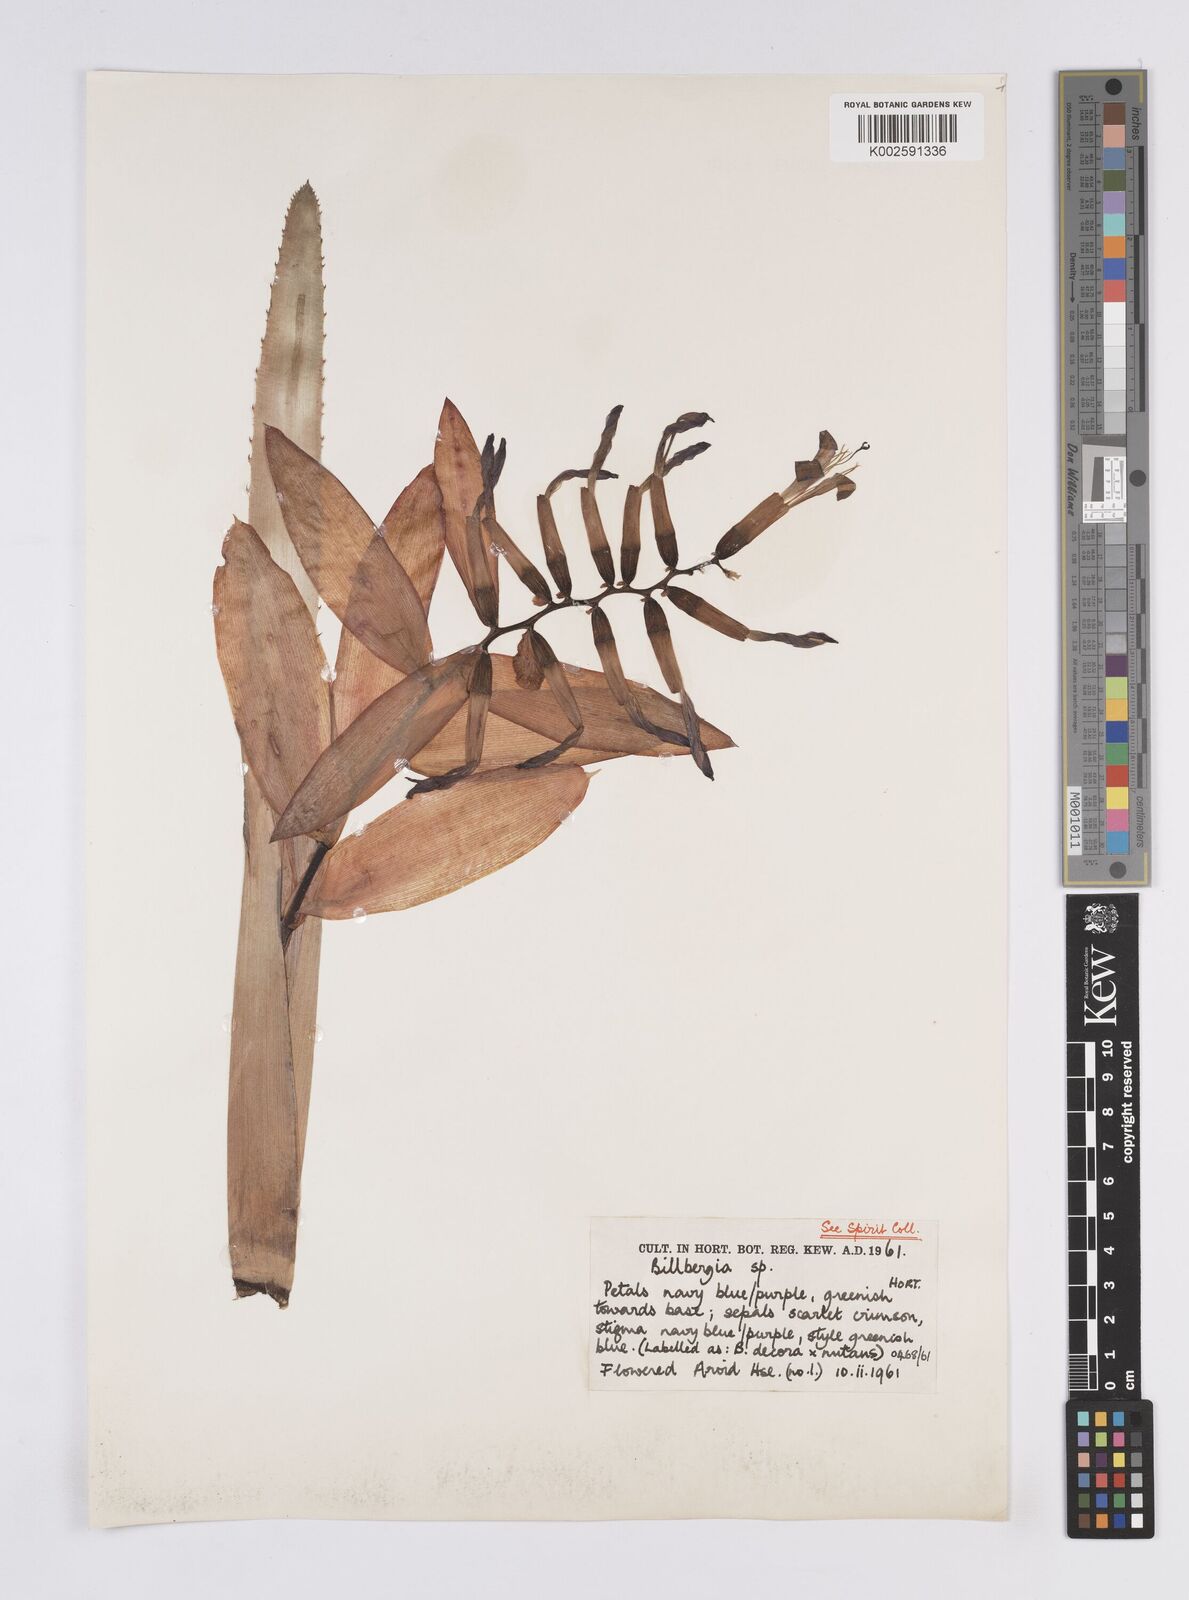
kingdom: Plantae
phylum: Tracheophyta
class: Liliopsida
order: Poales
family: Bromeliaceae
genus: Billbergia
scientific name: Billbergia
